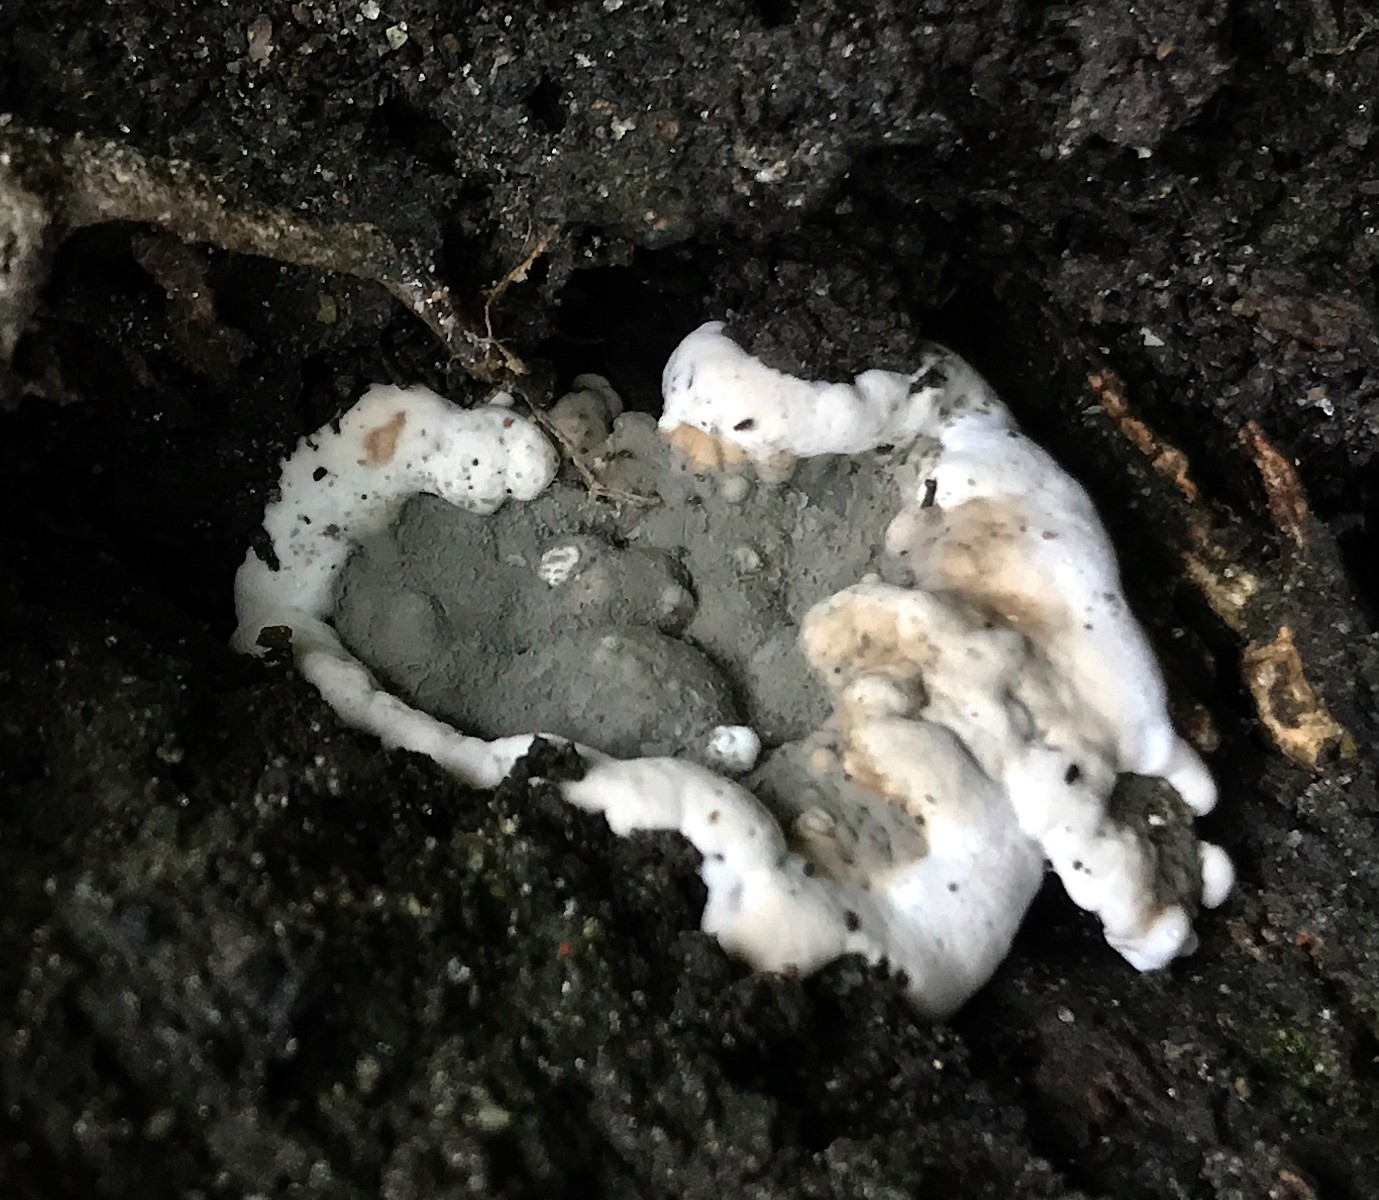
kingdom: Fungi
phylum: Ascomycota
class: Sordariomycetes
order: Xylariales
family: Xylariaceae
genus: Kretzschmaria
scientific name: Kretzschmaria deusta
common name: stor kulsvamp
